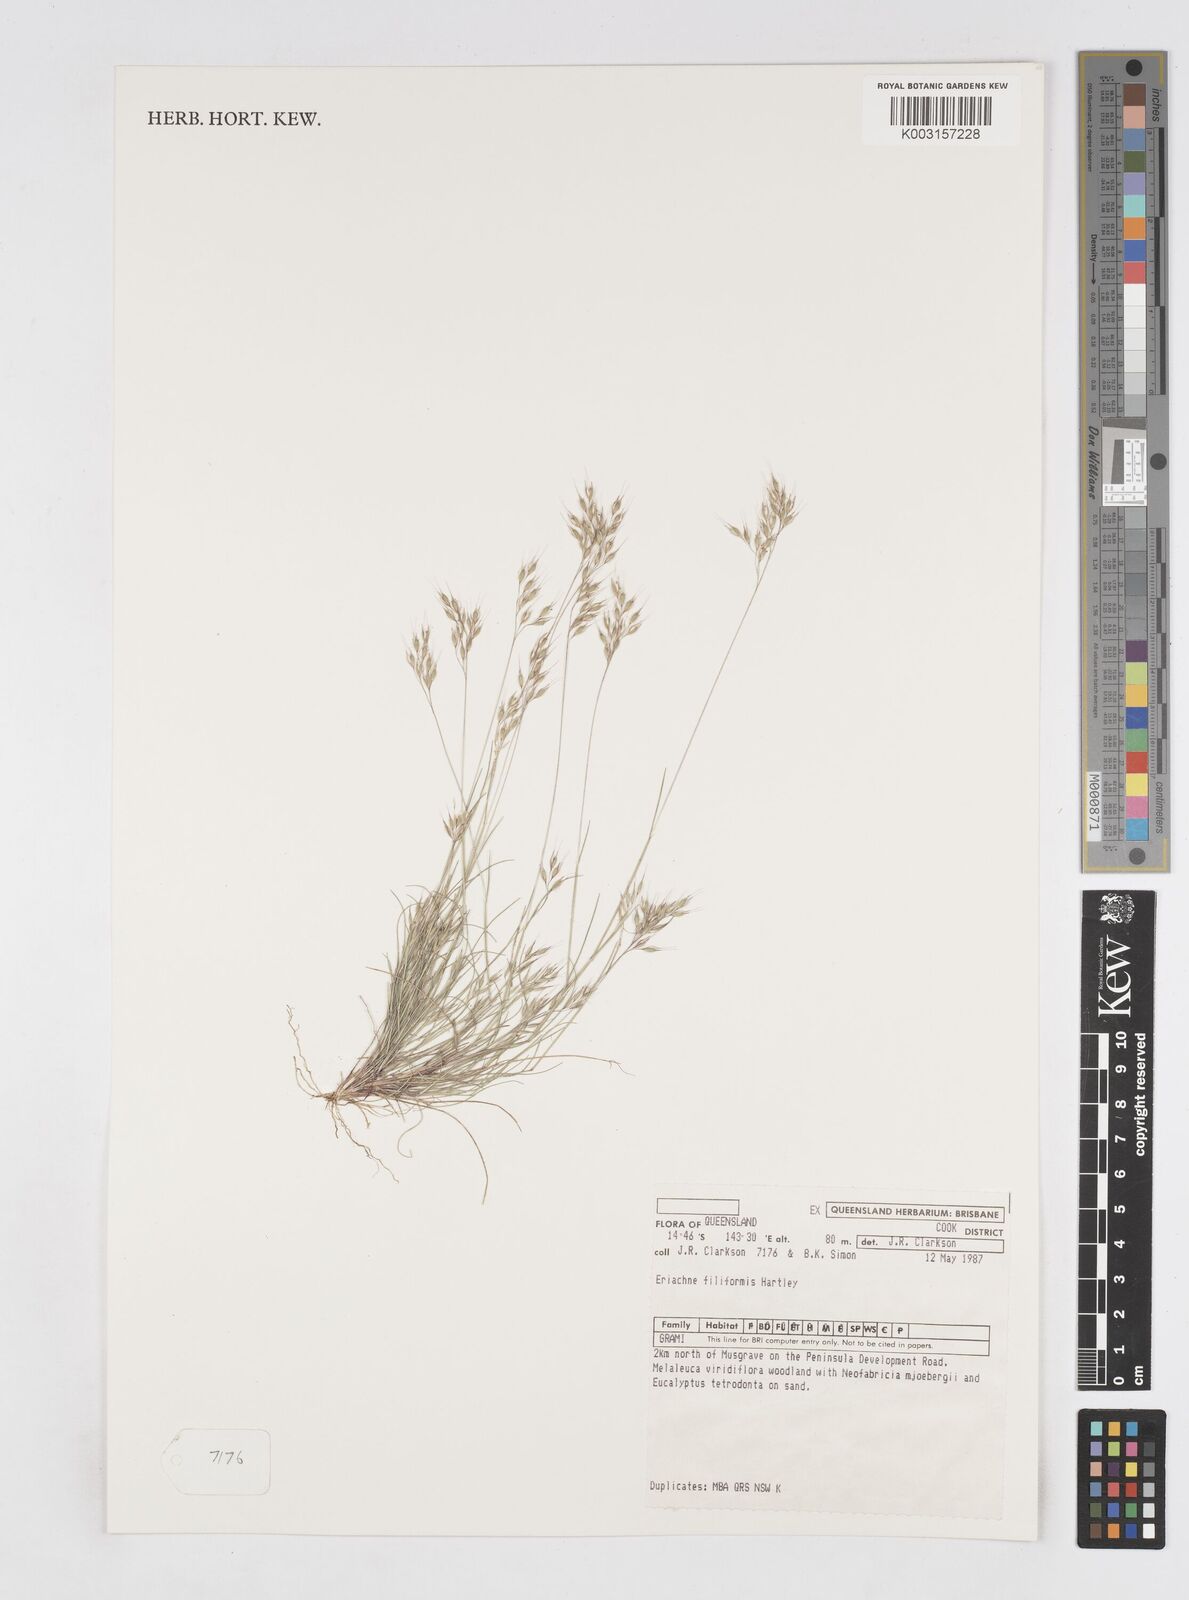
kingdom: Plantae
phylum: Tracheophyta
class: Liliopsida
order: Poales
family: Poaceae
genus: Eriachne
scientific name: Eriachne filiformis
